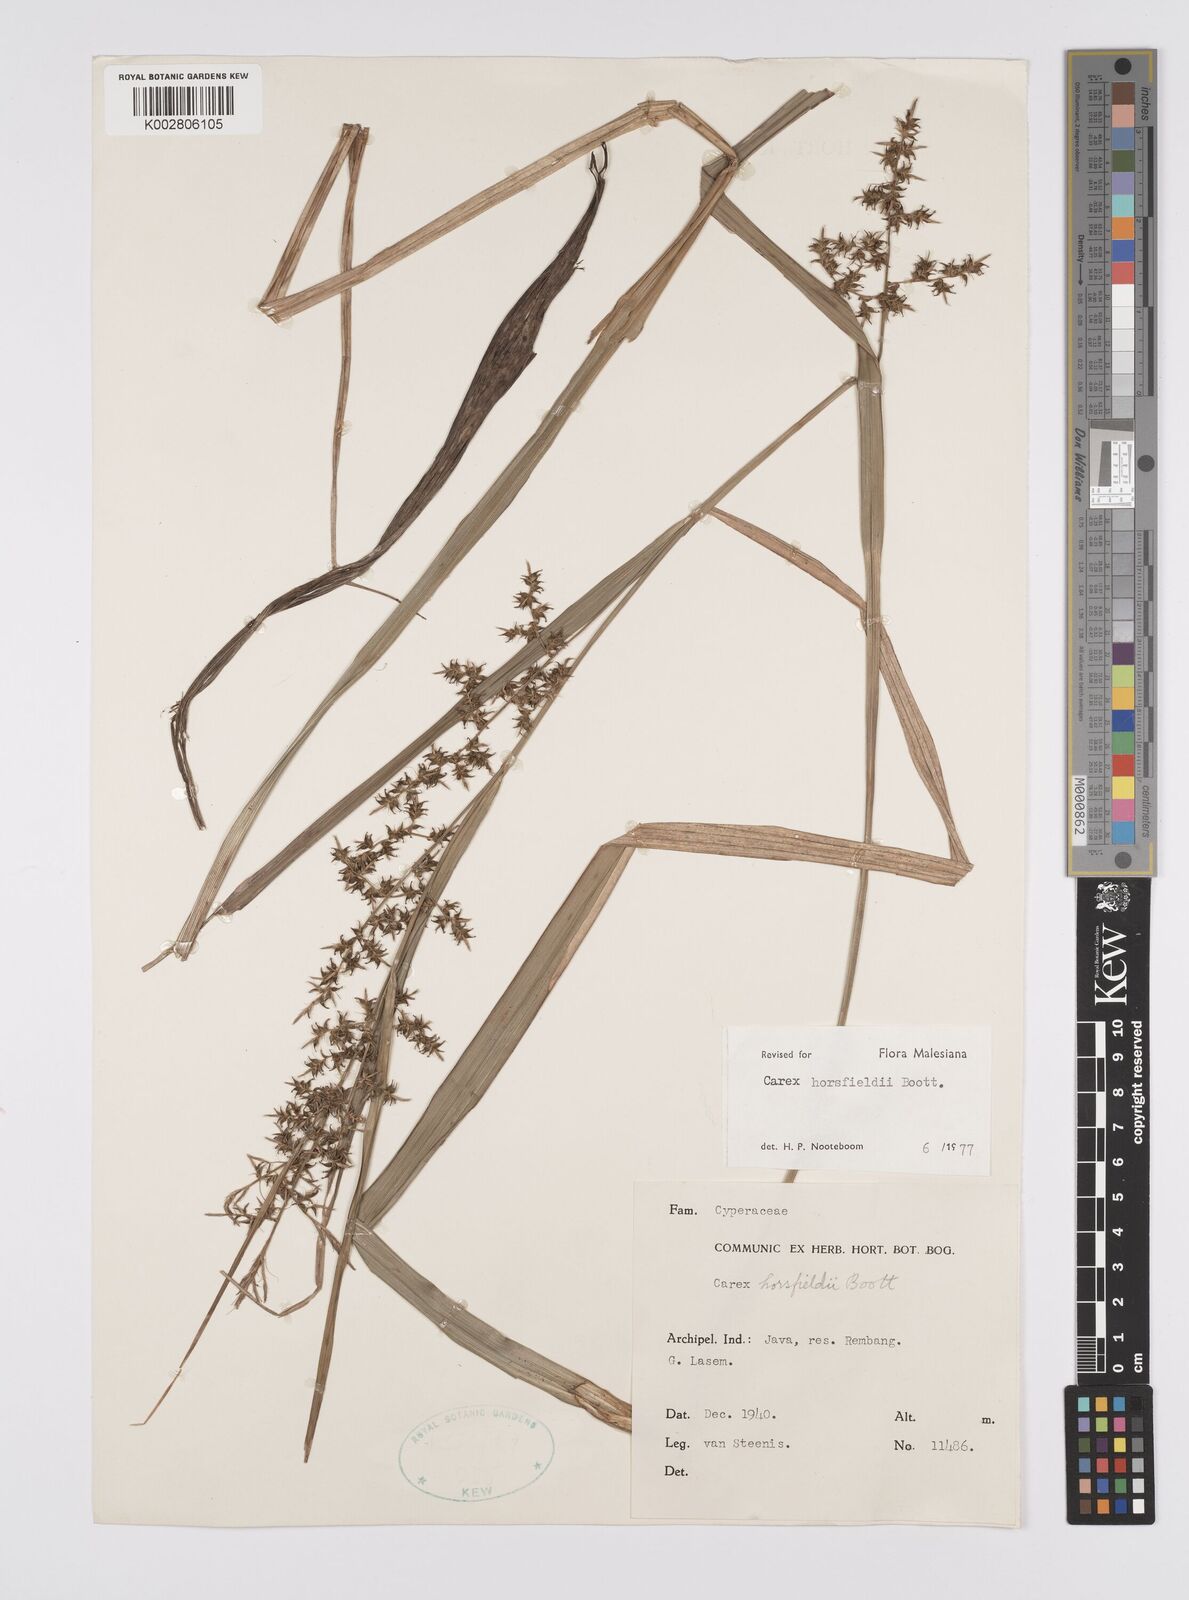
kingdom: Plantae
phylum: Tracheophyta
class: Liliopsida
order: Poales
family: Cyperaceae
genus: Carex
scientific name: Carex horsfieldii
